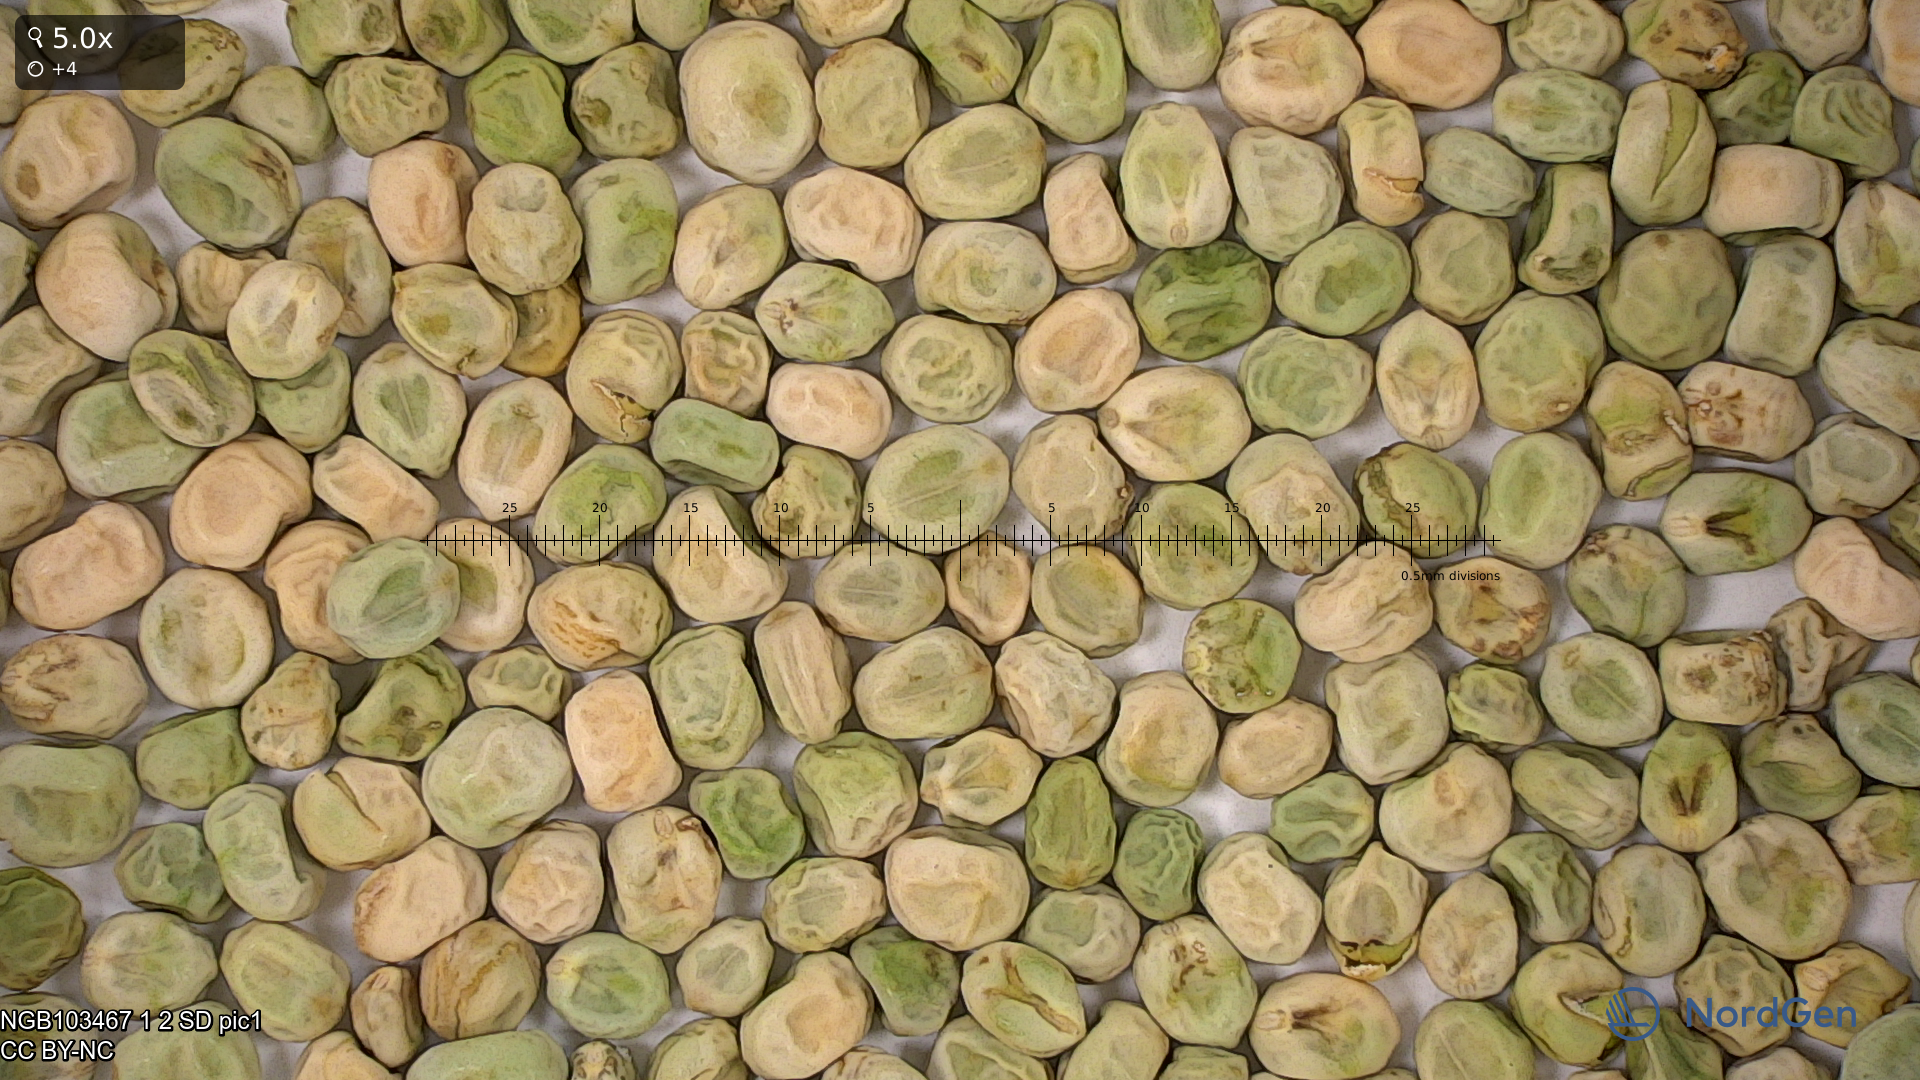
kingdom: Plantae
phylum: Tracheophyta
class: Magnoliopsida
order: Fabales
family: Fabaceae
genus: Lathyrus
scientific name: Lathyrus oleraceus
